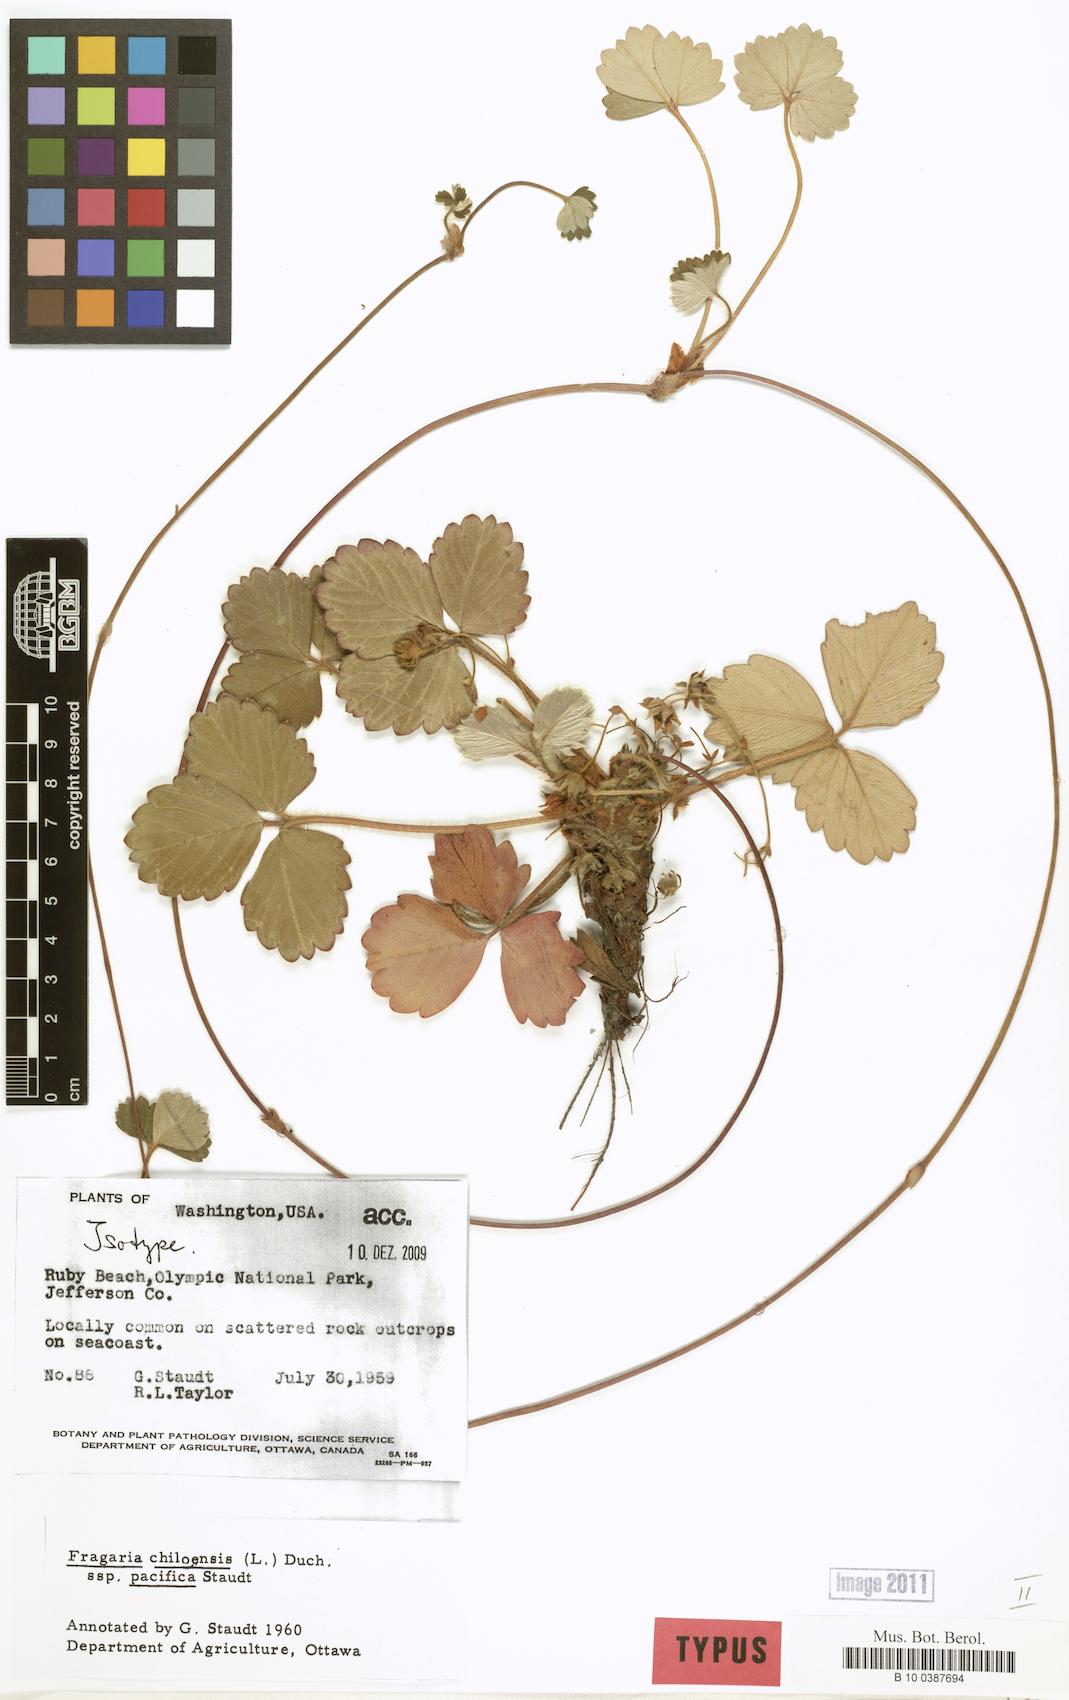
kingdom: Plantae
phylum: Tracheophyta
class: Magnoliopsida
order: Rosales
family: Rosaceae
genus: Fragaria
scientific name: Fragaria chiloensis
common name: Beach strawberry
